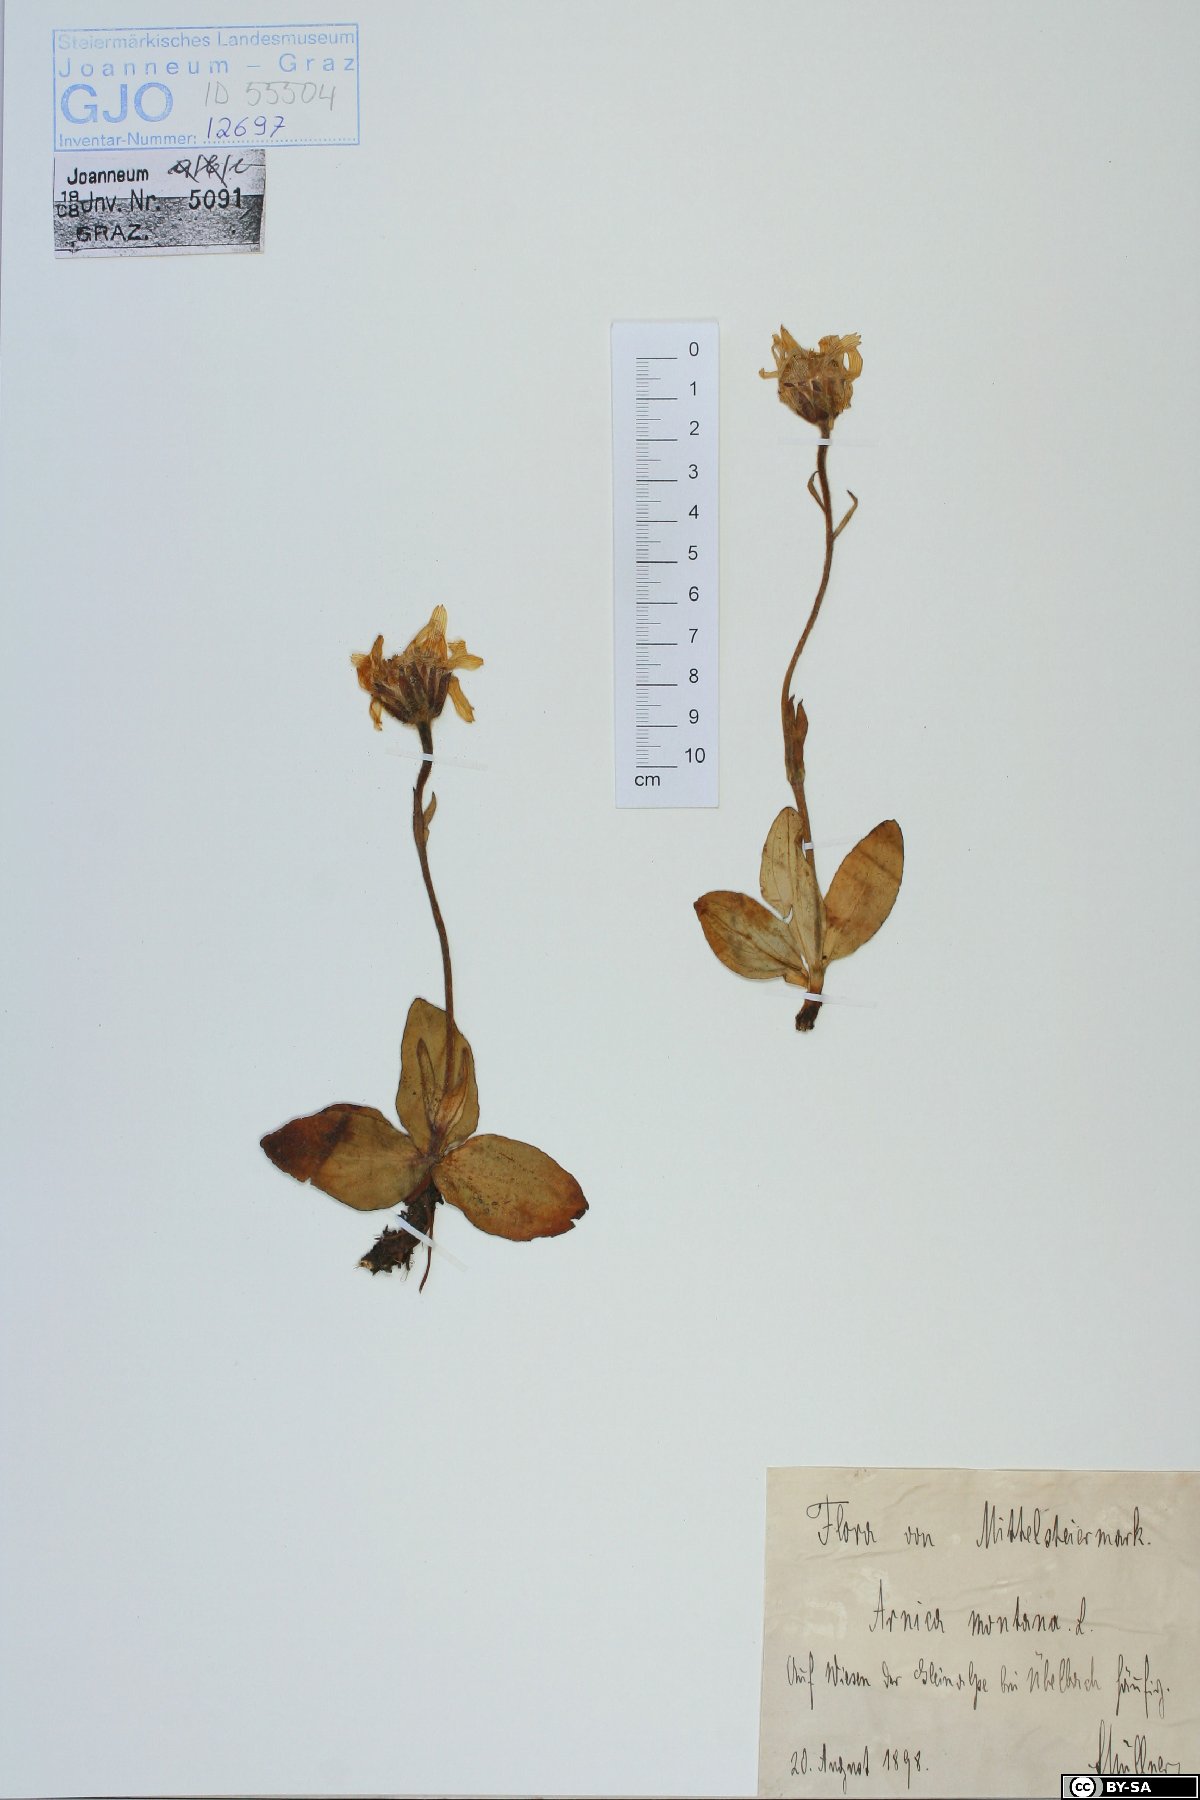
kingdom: Plantae
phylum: Tracheophyta
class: Magnoliopsida
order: Asterales
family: Asteraceae
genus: Arnica
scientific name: Arnica montana
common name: Leopard's bane
